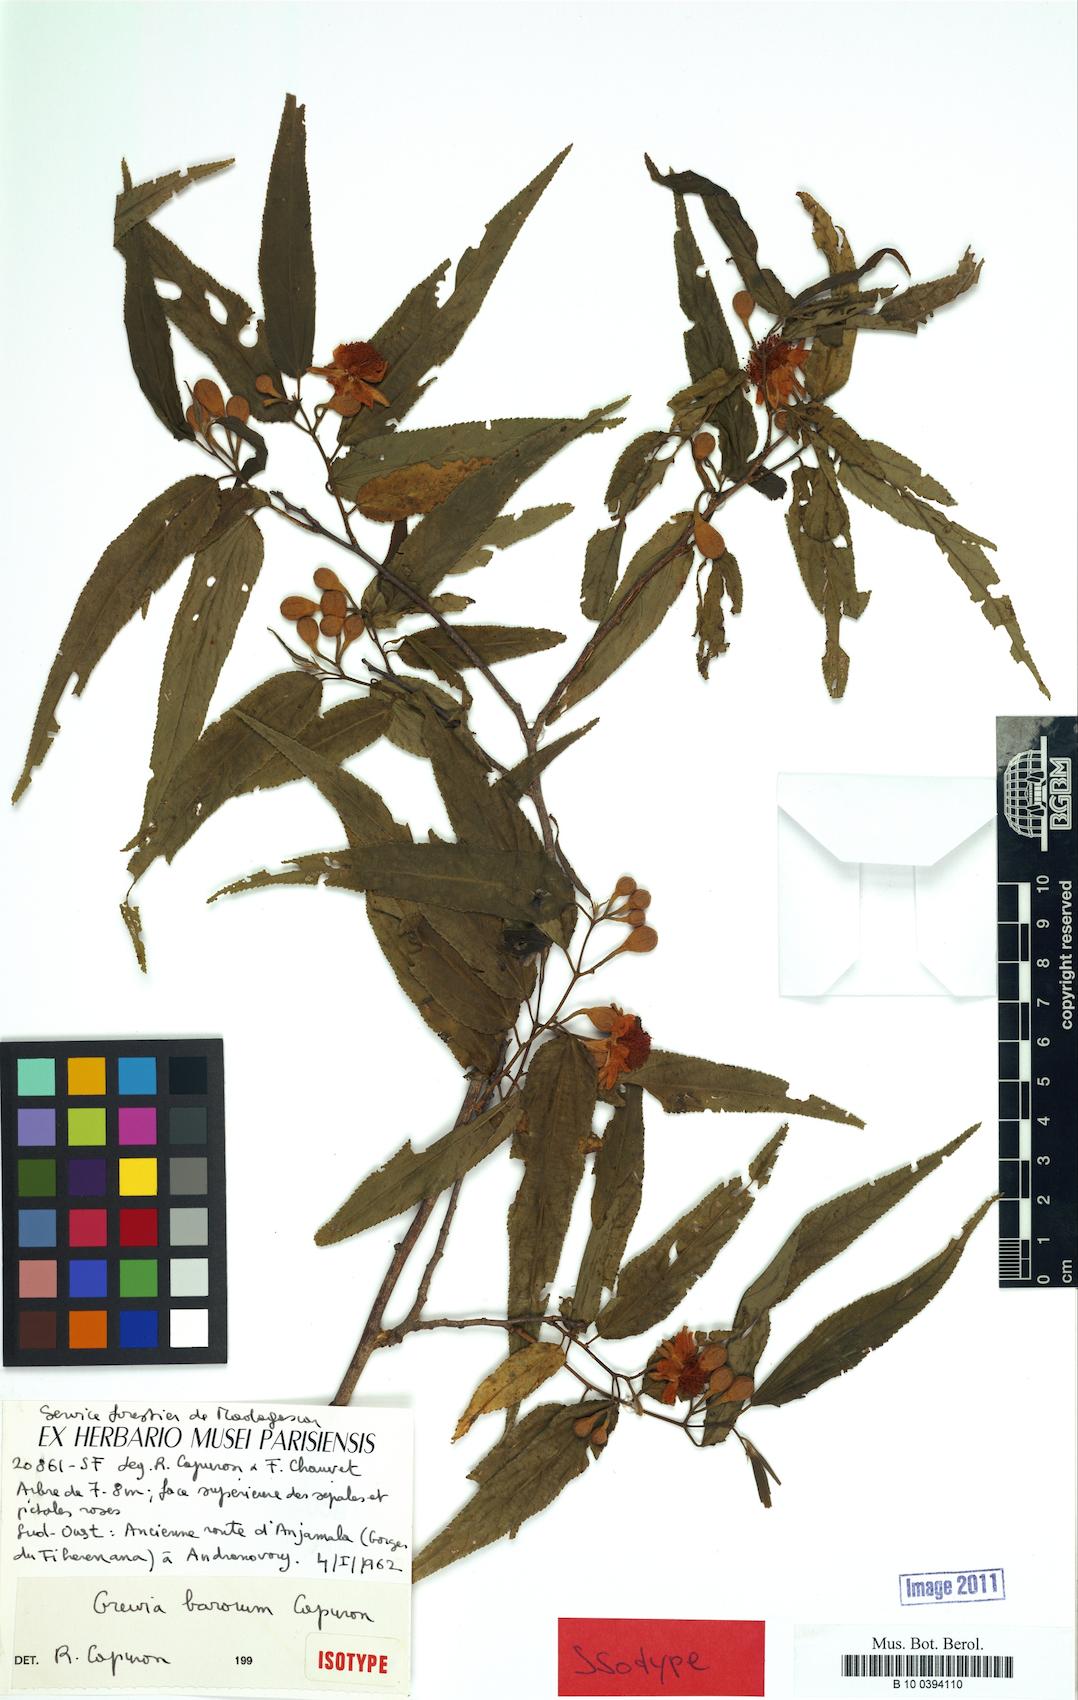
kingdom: Plantae
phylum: Tracheophyta
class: Magnoliopsida
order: Malvales
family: Malvaceae
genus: Grewia
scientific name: Grewia barorum
